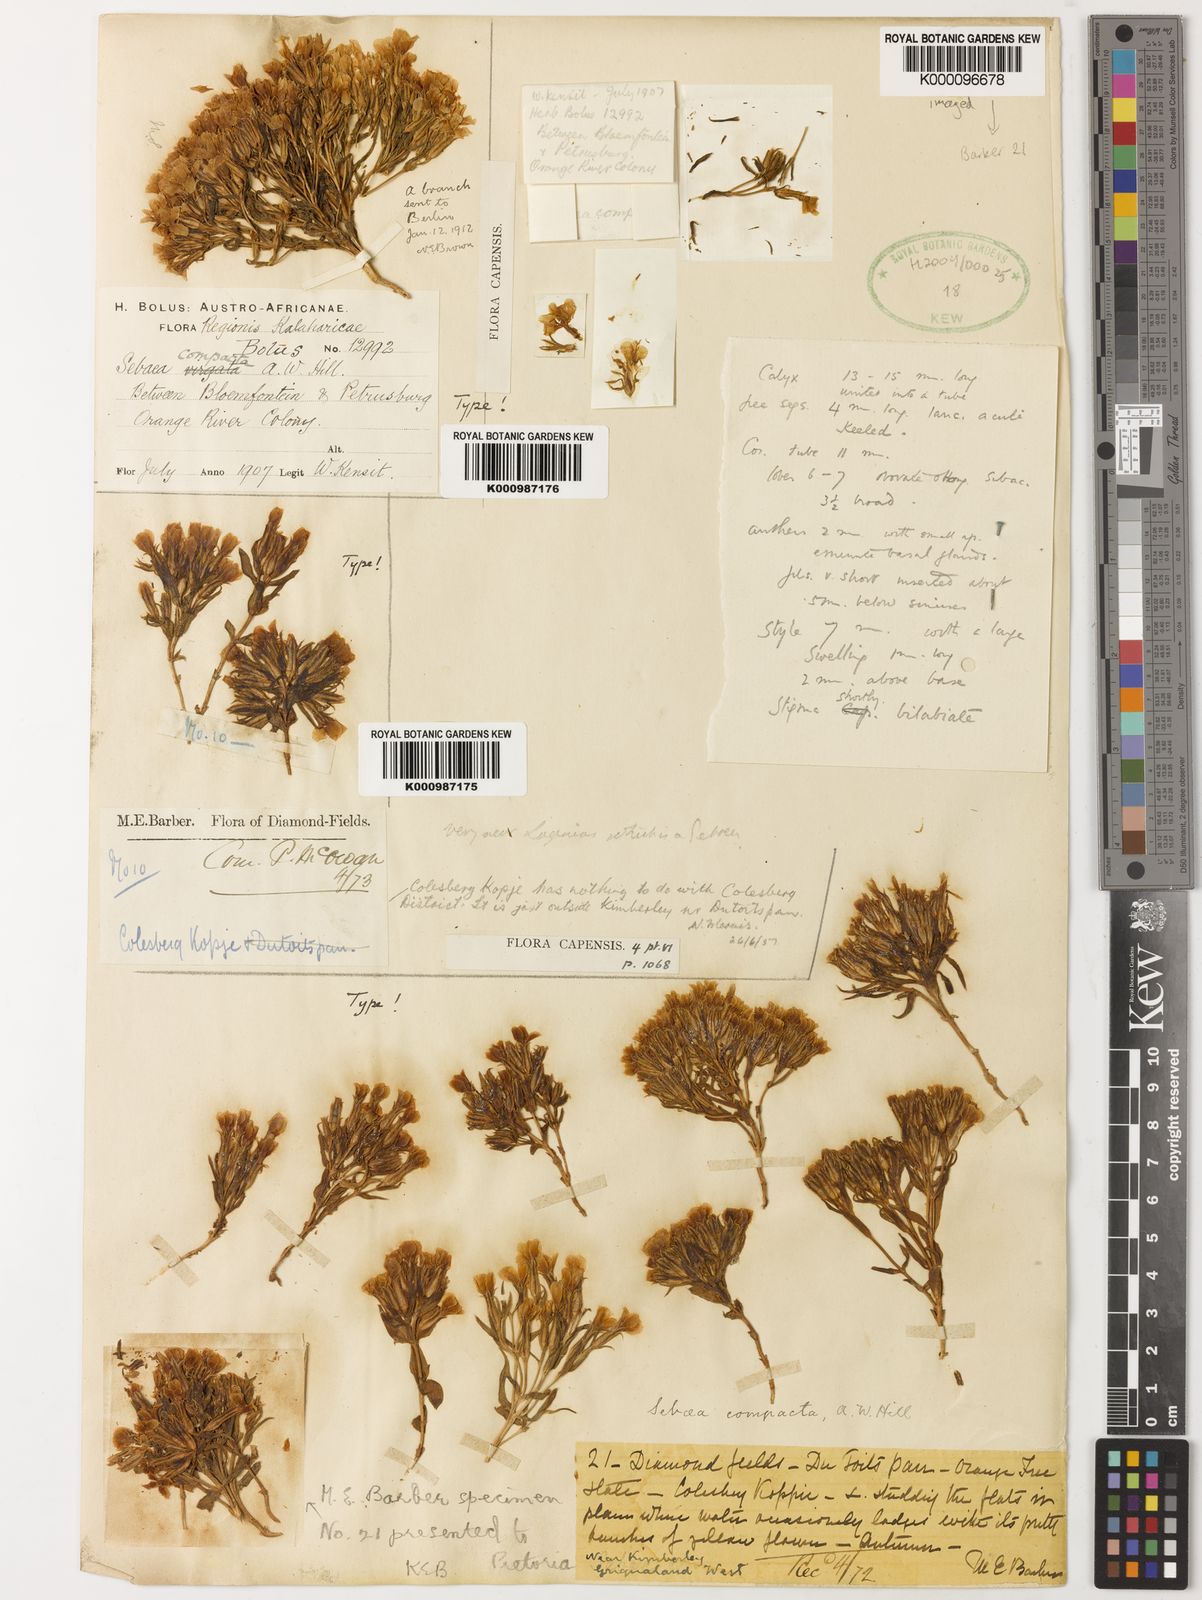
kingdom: Plantae
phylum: Tracheophyta
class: Magnoliopsida
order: Gentianales
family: Gentianaceae
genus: Sebaea
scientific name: Sebaea compacta
